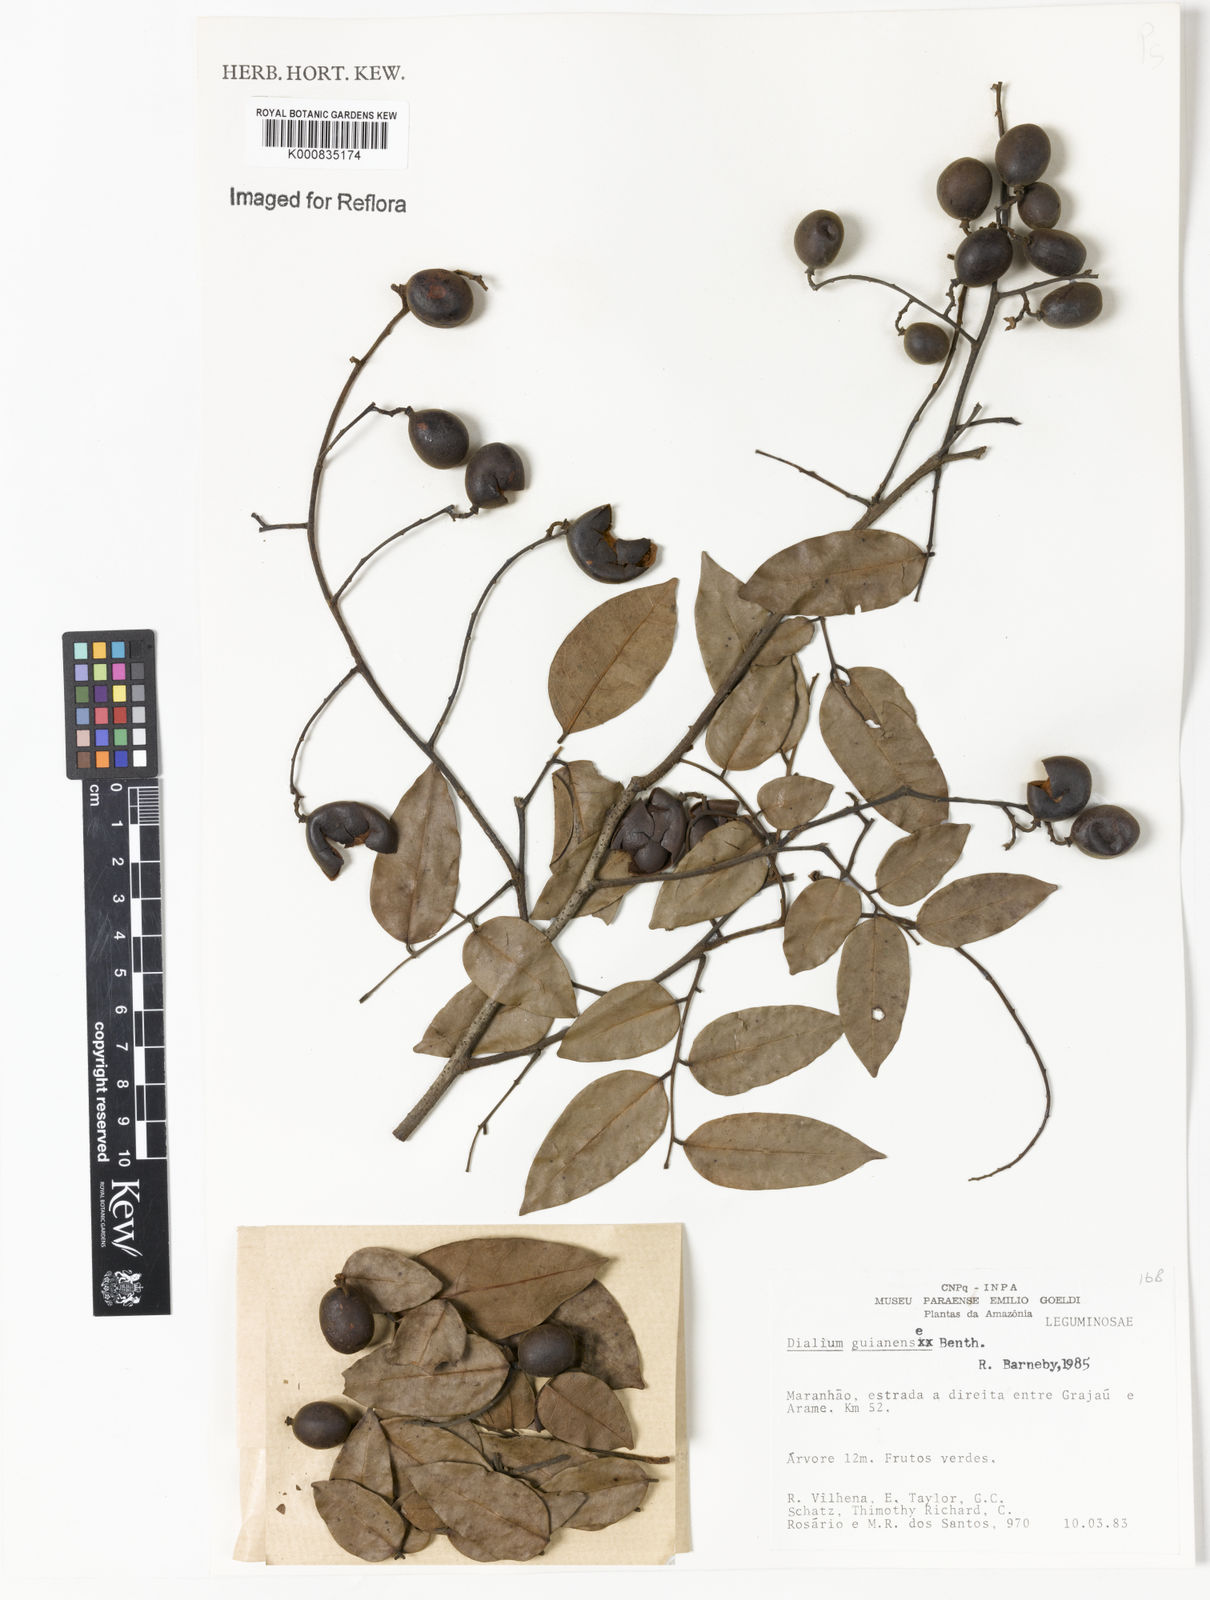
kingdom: Plantae
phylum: Tracheophyta
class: Magnoliopsida
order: Fabales
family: Fabaceae
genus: Dialium
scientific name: Dialium guianense
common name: Ironwood
